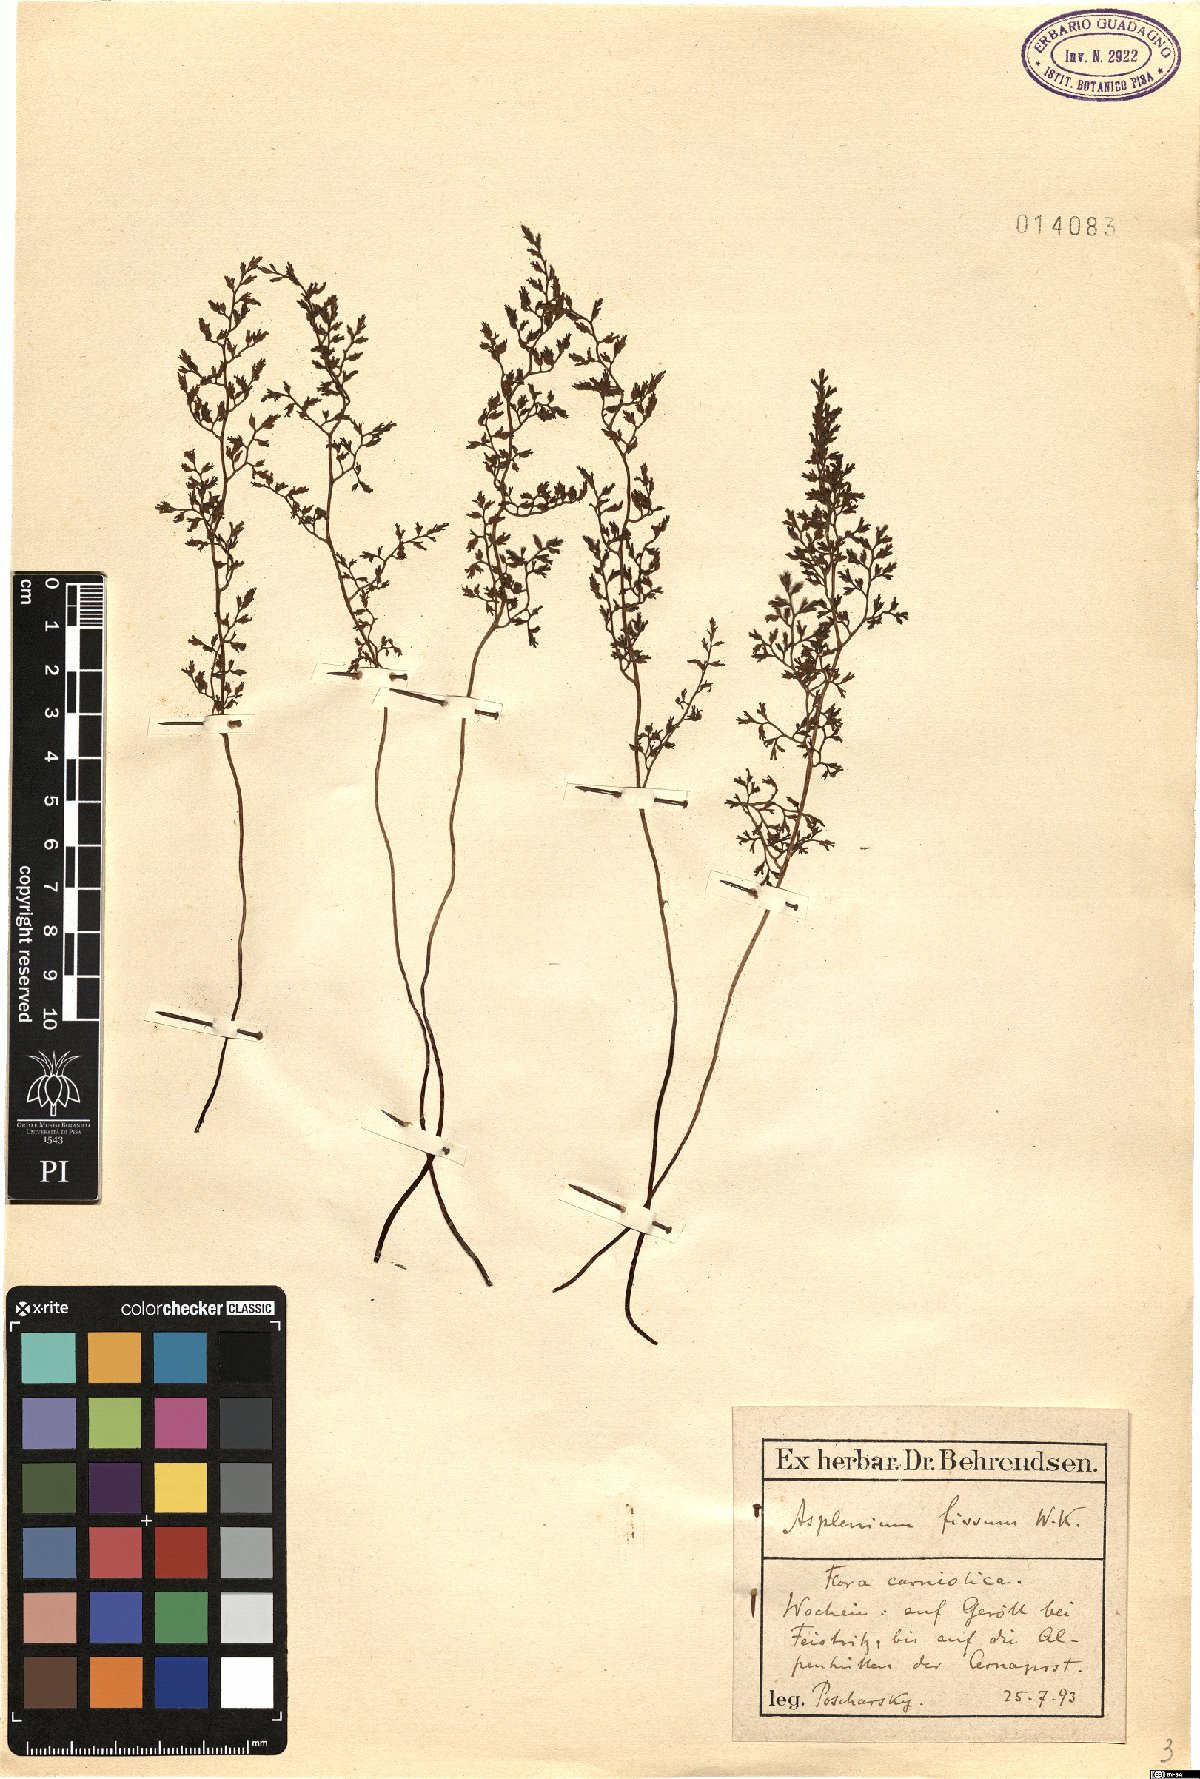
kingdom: Plantae
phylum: Tracheophyta
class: Polypodiopsida
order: Polypodiales
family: Aspleniaceae
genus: Asplenium
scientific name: Asplenium fissum
